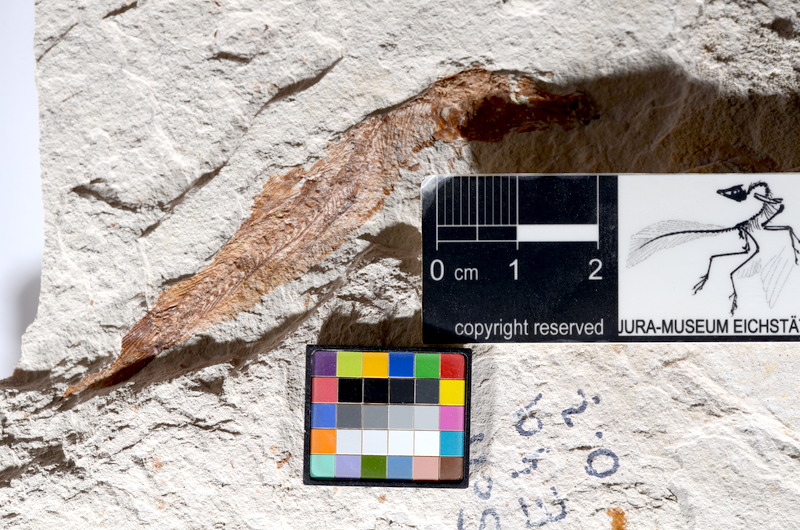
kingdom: Animalia
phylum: Chordata
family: Ascalaboidae
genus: Tharsis
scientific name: Tharsis dubius
